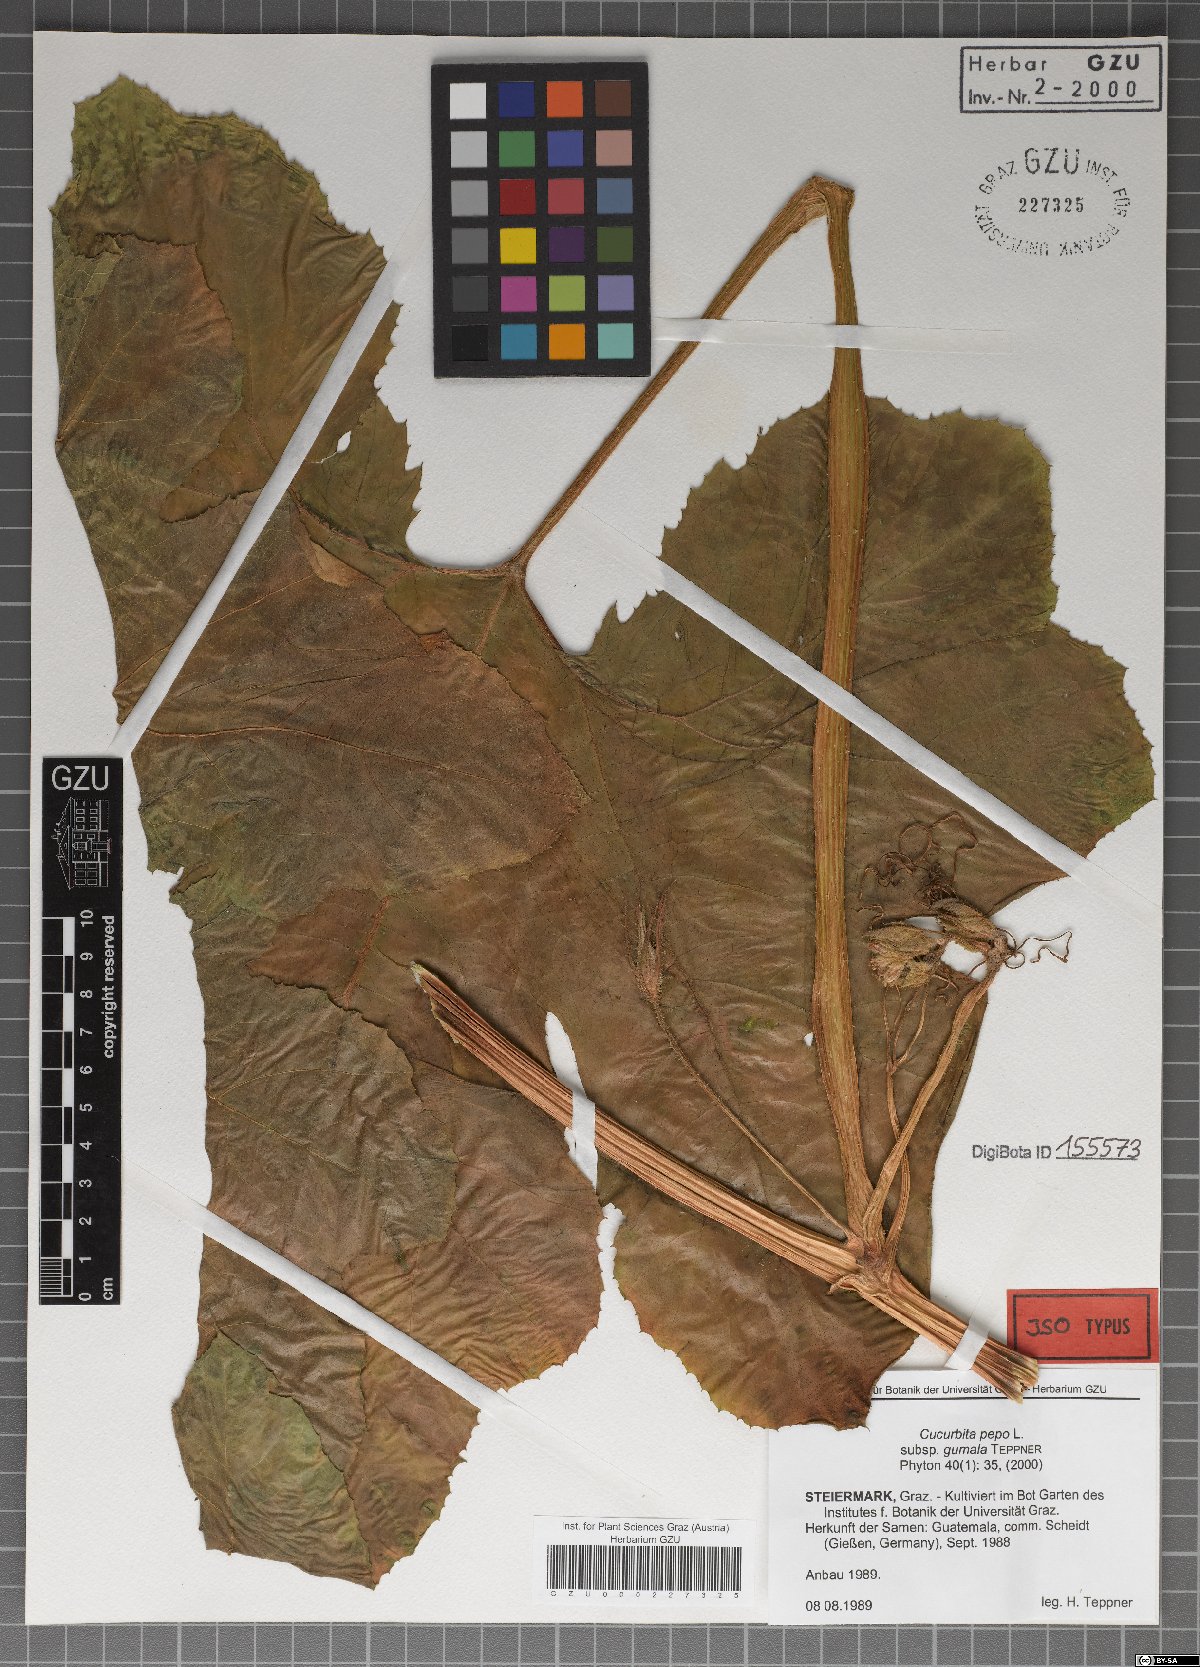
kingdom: Plantae
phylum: Tracheophyta
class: Magnoliopsida
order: Cucurbitales
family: Cucurbitaceae
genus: Cucurbita
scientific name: Cucurbita pepo
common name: Marrow
